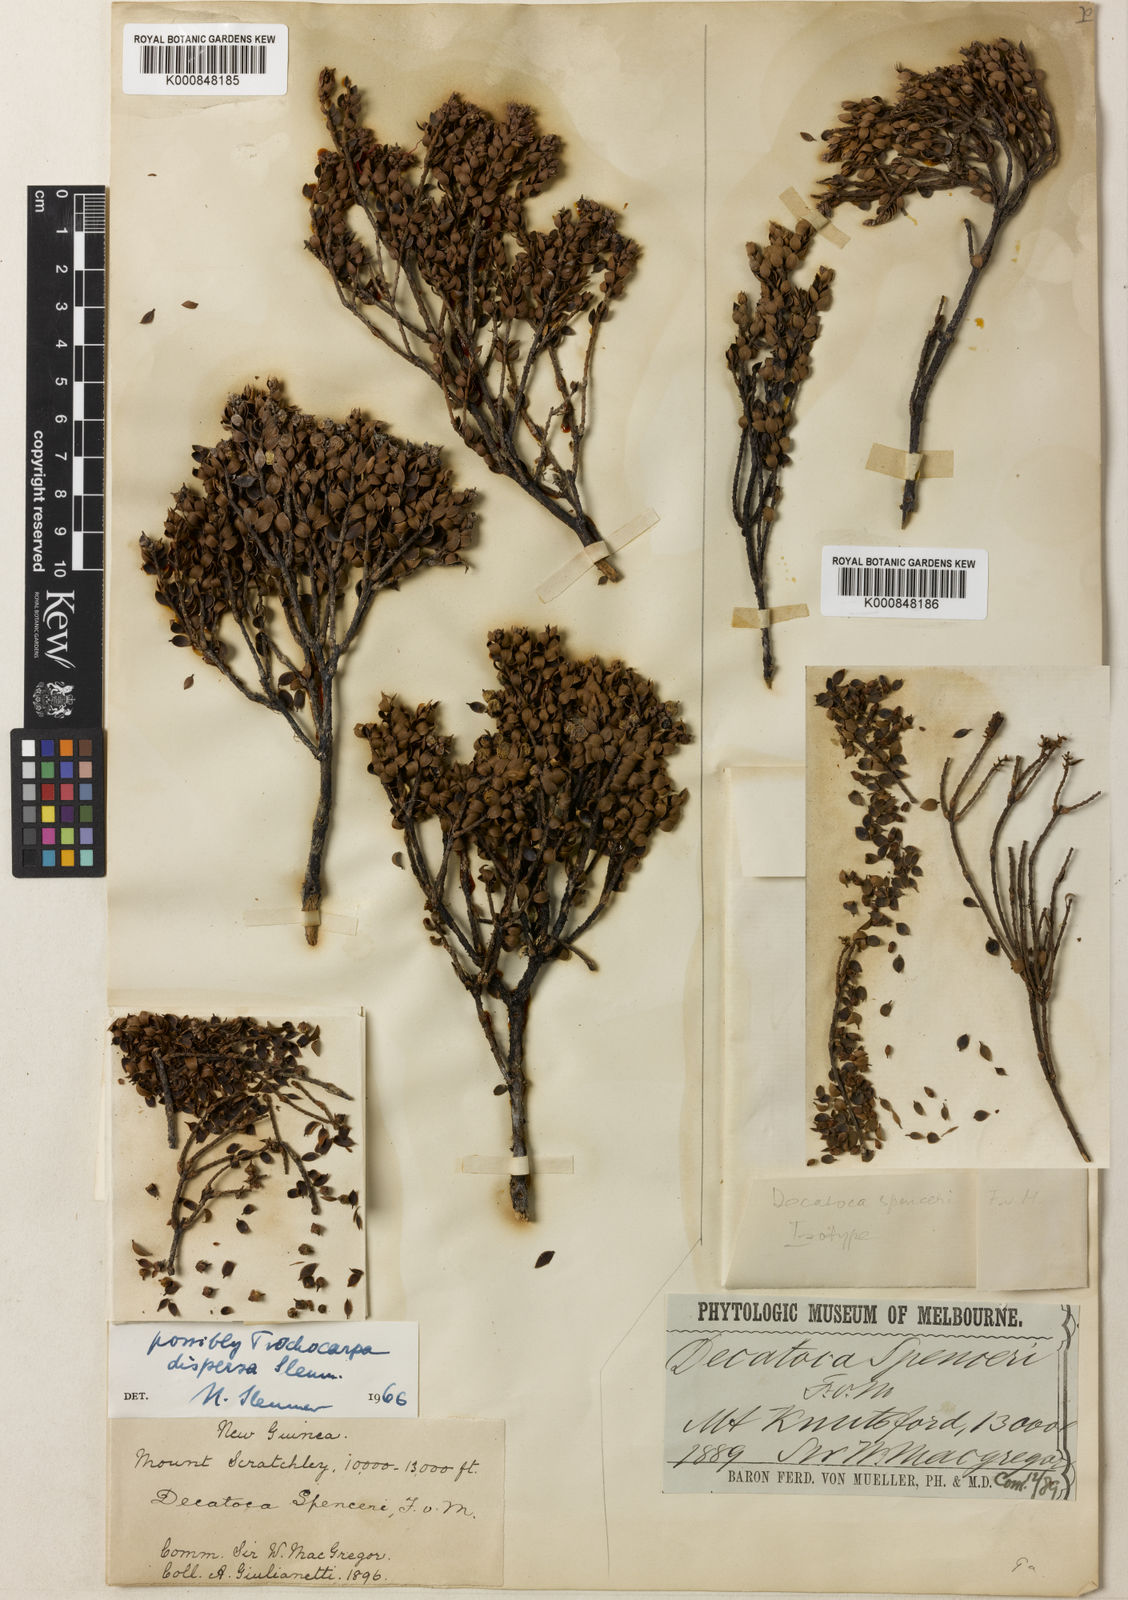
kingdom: Plantae
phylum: Tracheophyta
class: Magnoliopsida
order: Ericales
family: Ericaceae
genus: Decatoca
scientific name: Decatoca spenceri
